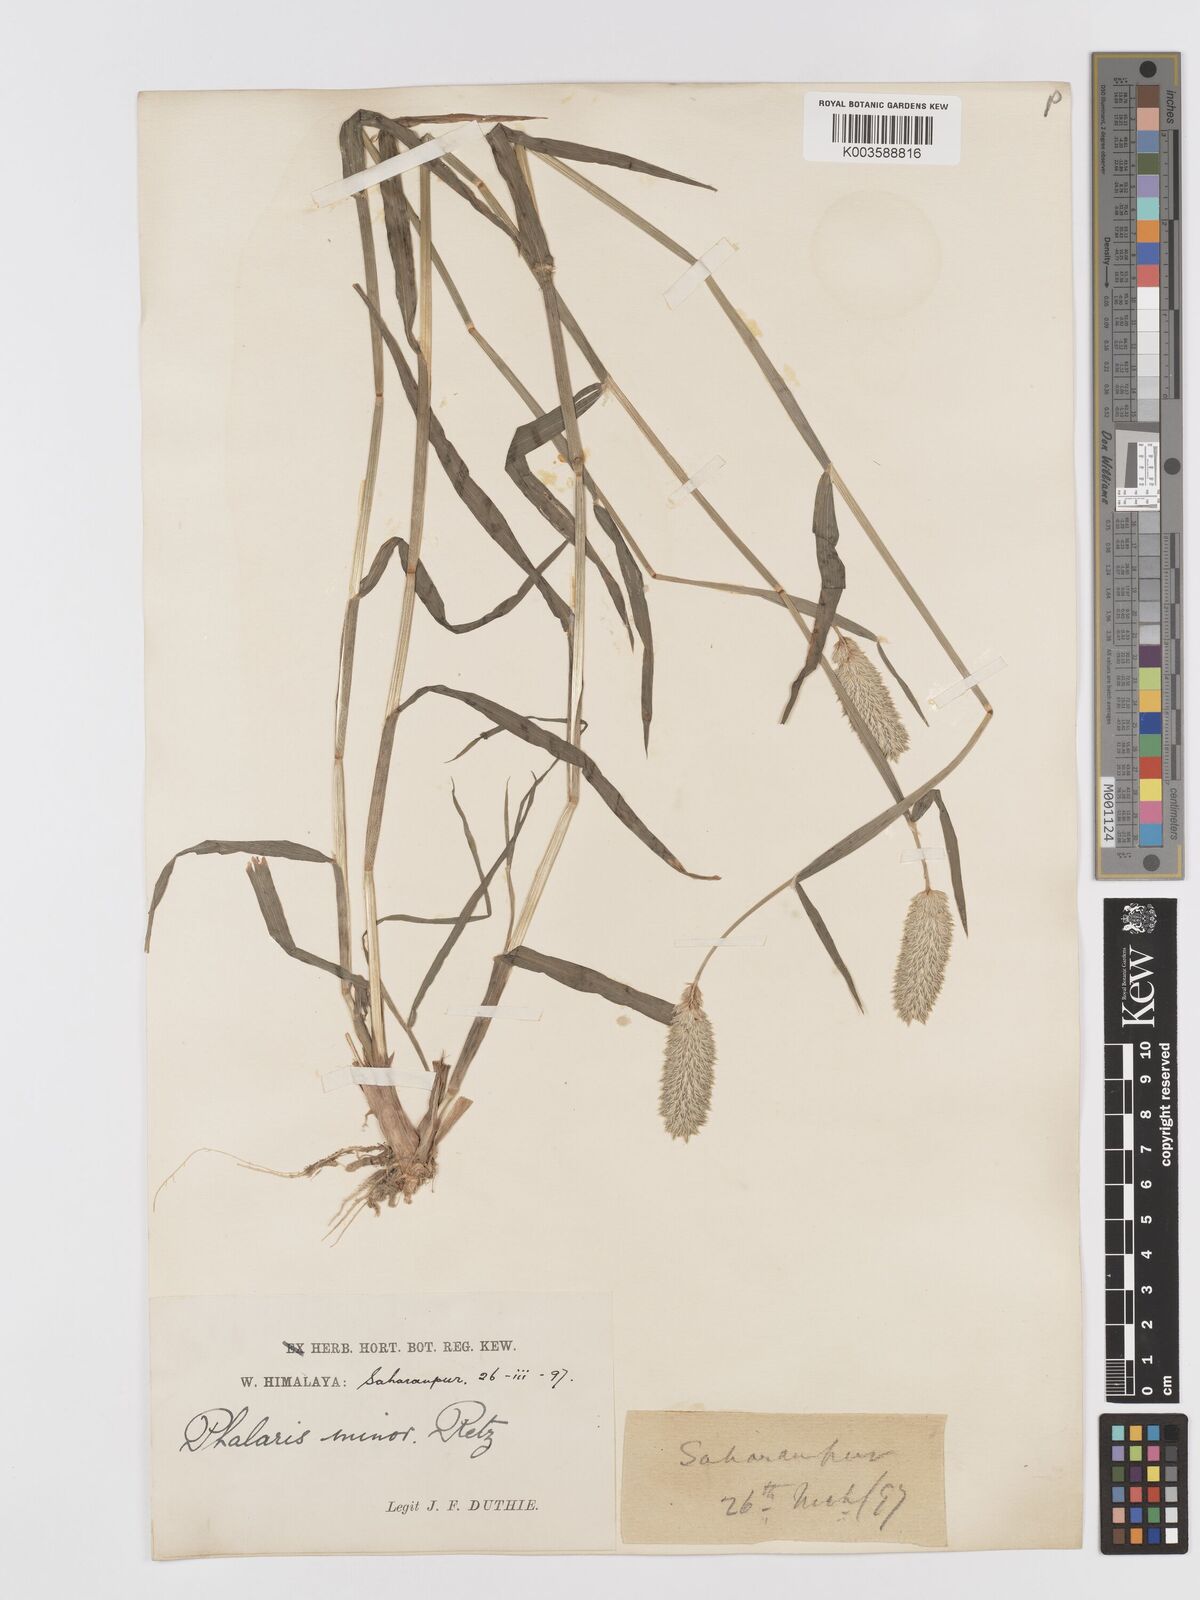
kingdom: Plantae
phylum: Tracheophyta
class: Liliopsida
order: Poales
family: Poaceae
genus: Phalaris
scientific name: Phalaris minor
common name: Littleseed canarygrass
